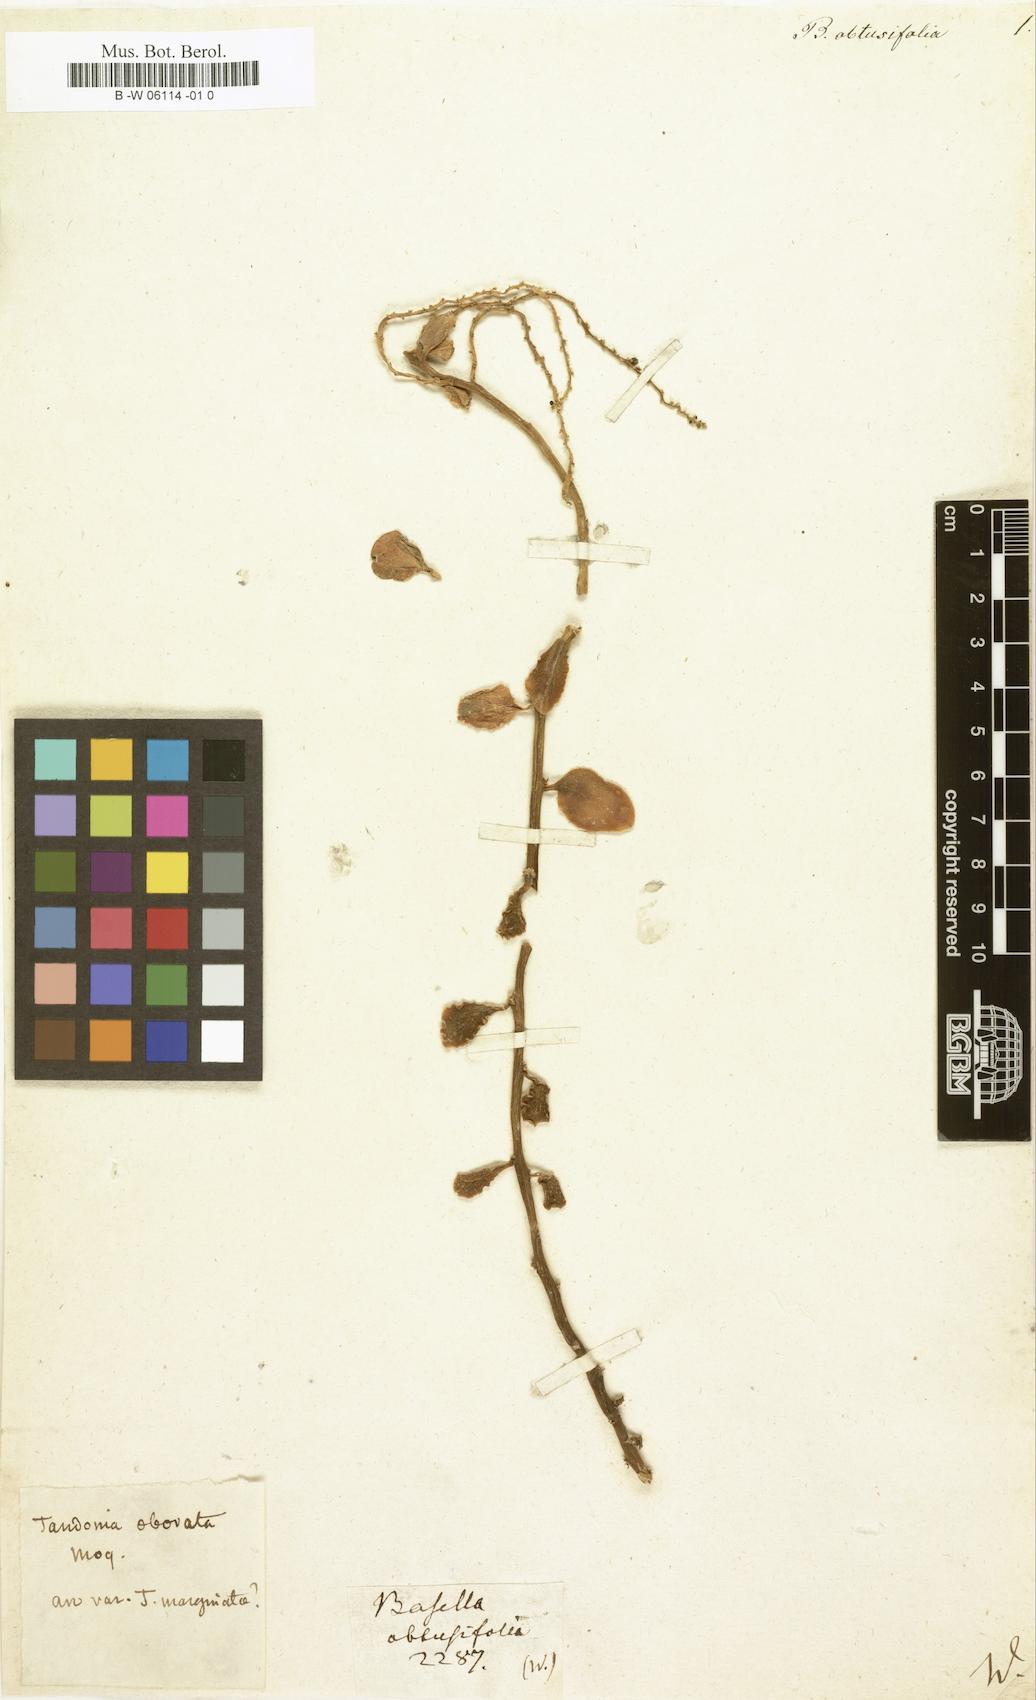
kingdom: Plantae
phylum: Tracheophyta
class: Magnoliopsida
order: Caryophyllales
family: Basellaceae
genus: Anredera
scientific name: Anredera marginata
